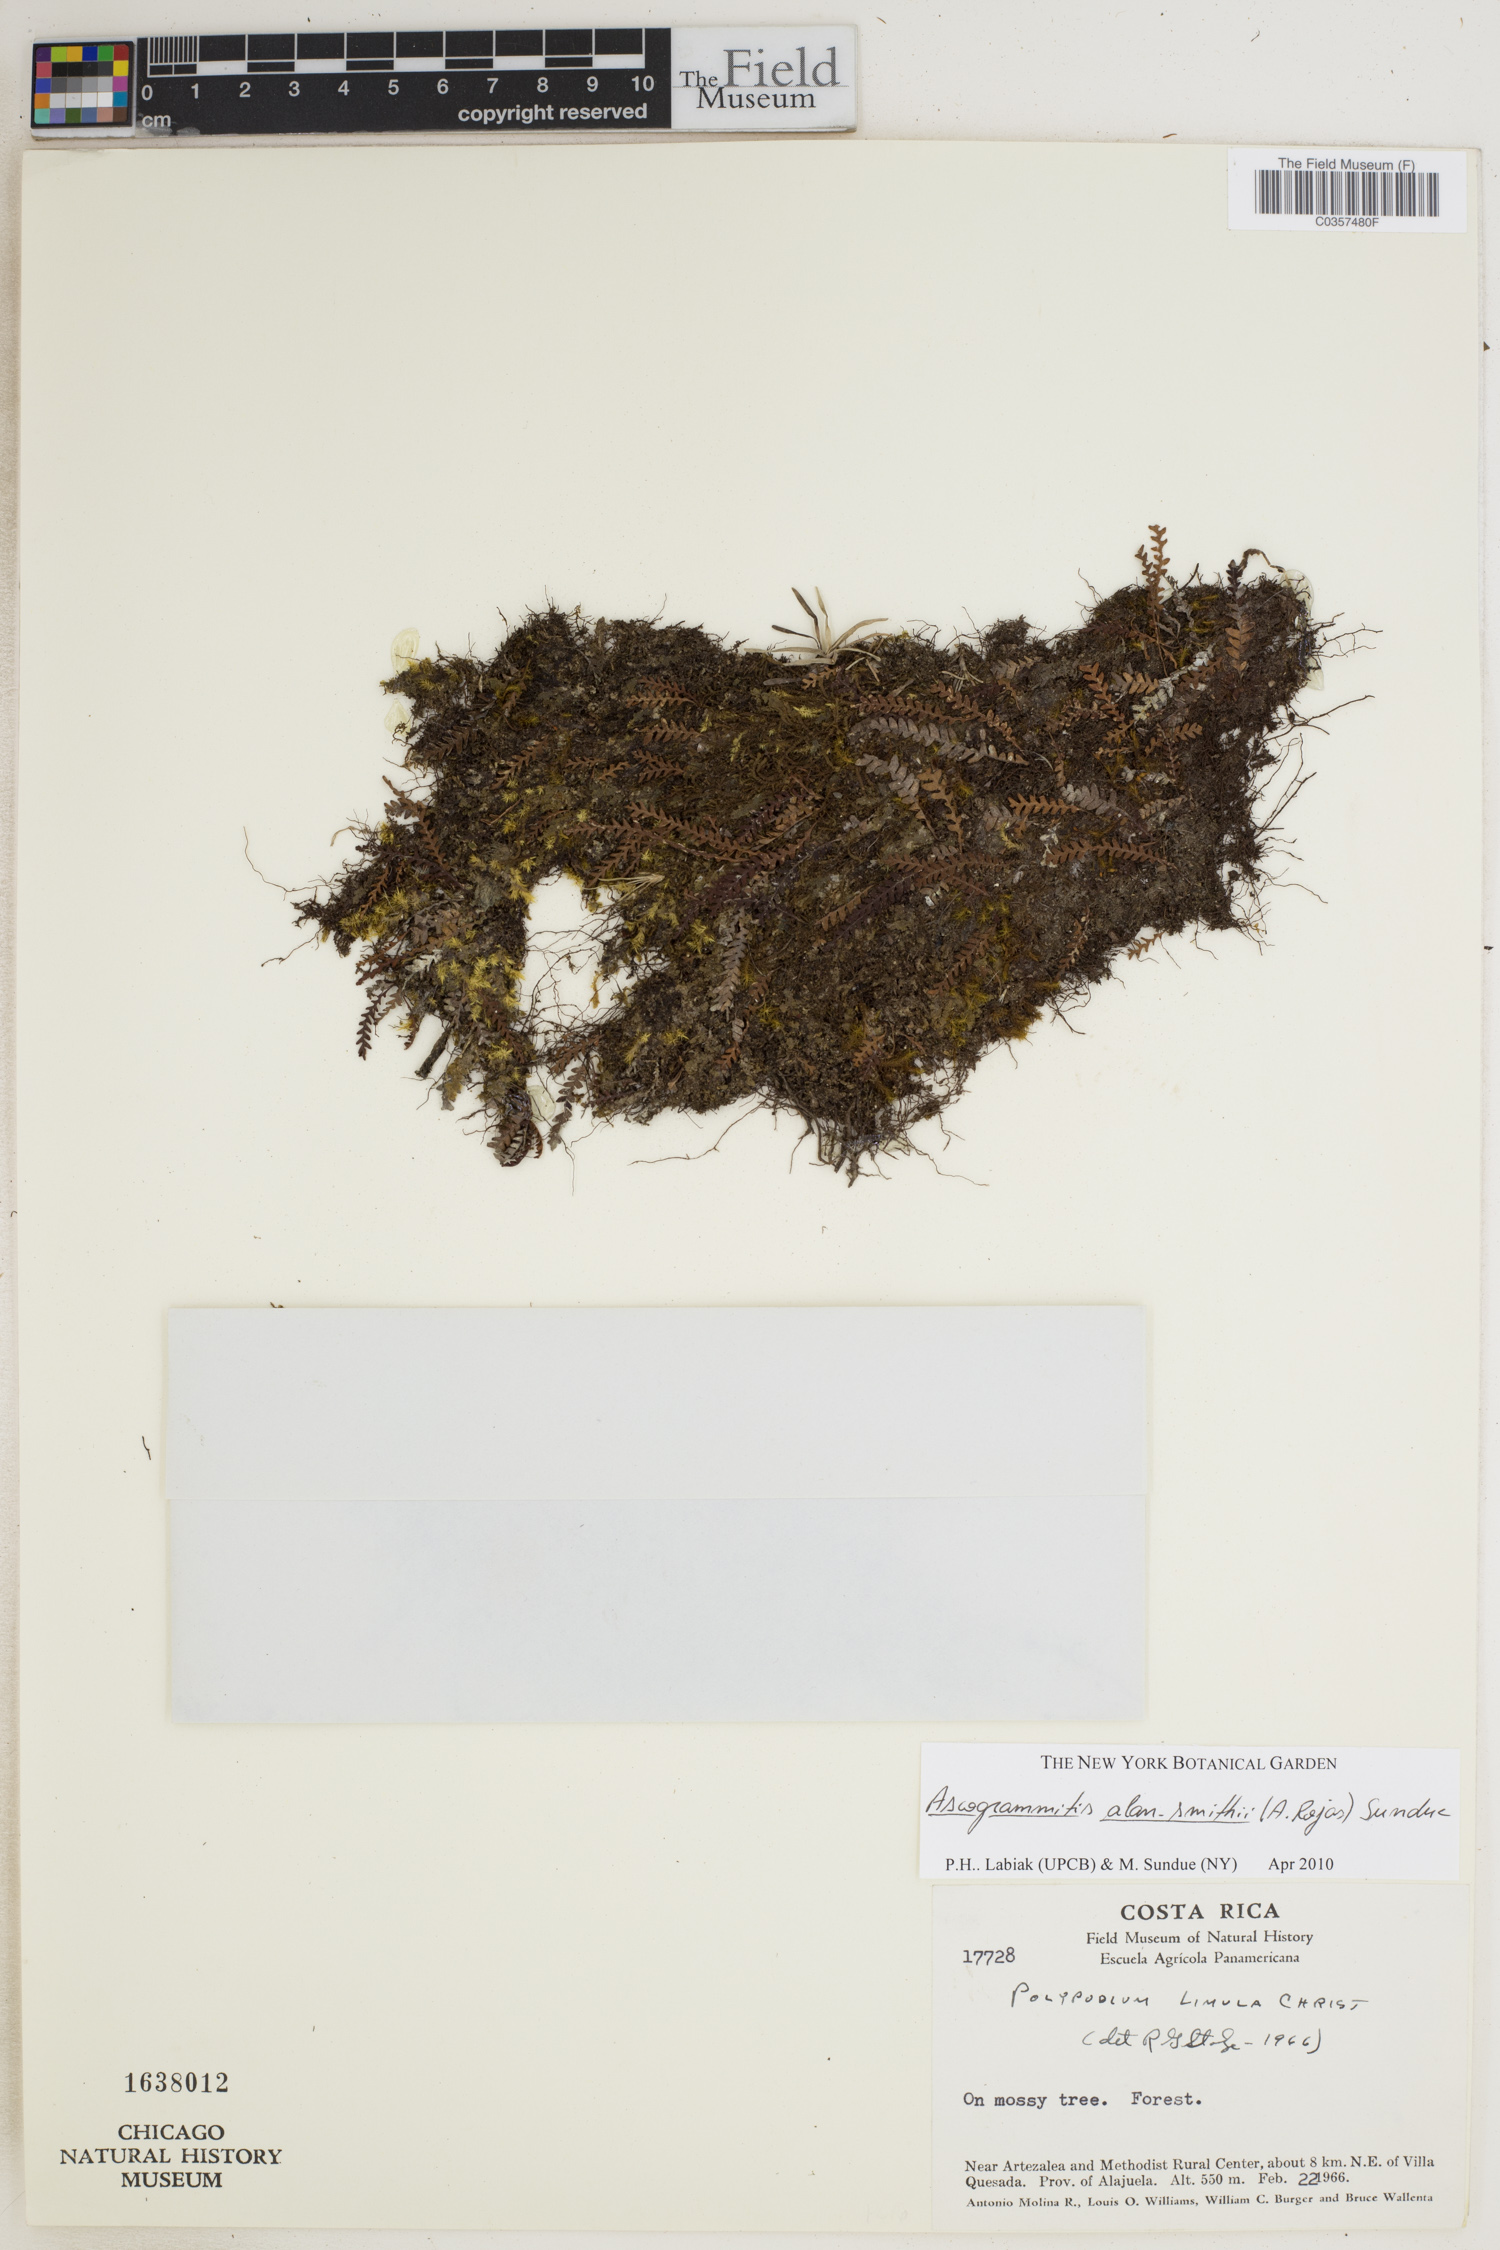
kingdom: Plantae
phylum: Tracheophyta
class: Polypodiopsida
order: Polypodiales
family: Polypodiaceae
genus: Ascogrammitis
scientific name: Ascogrammitis alan-smithii
